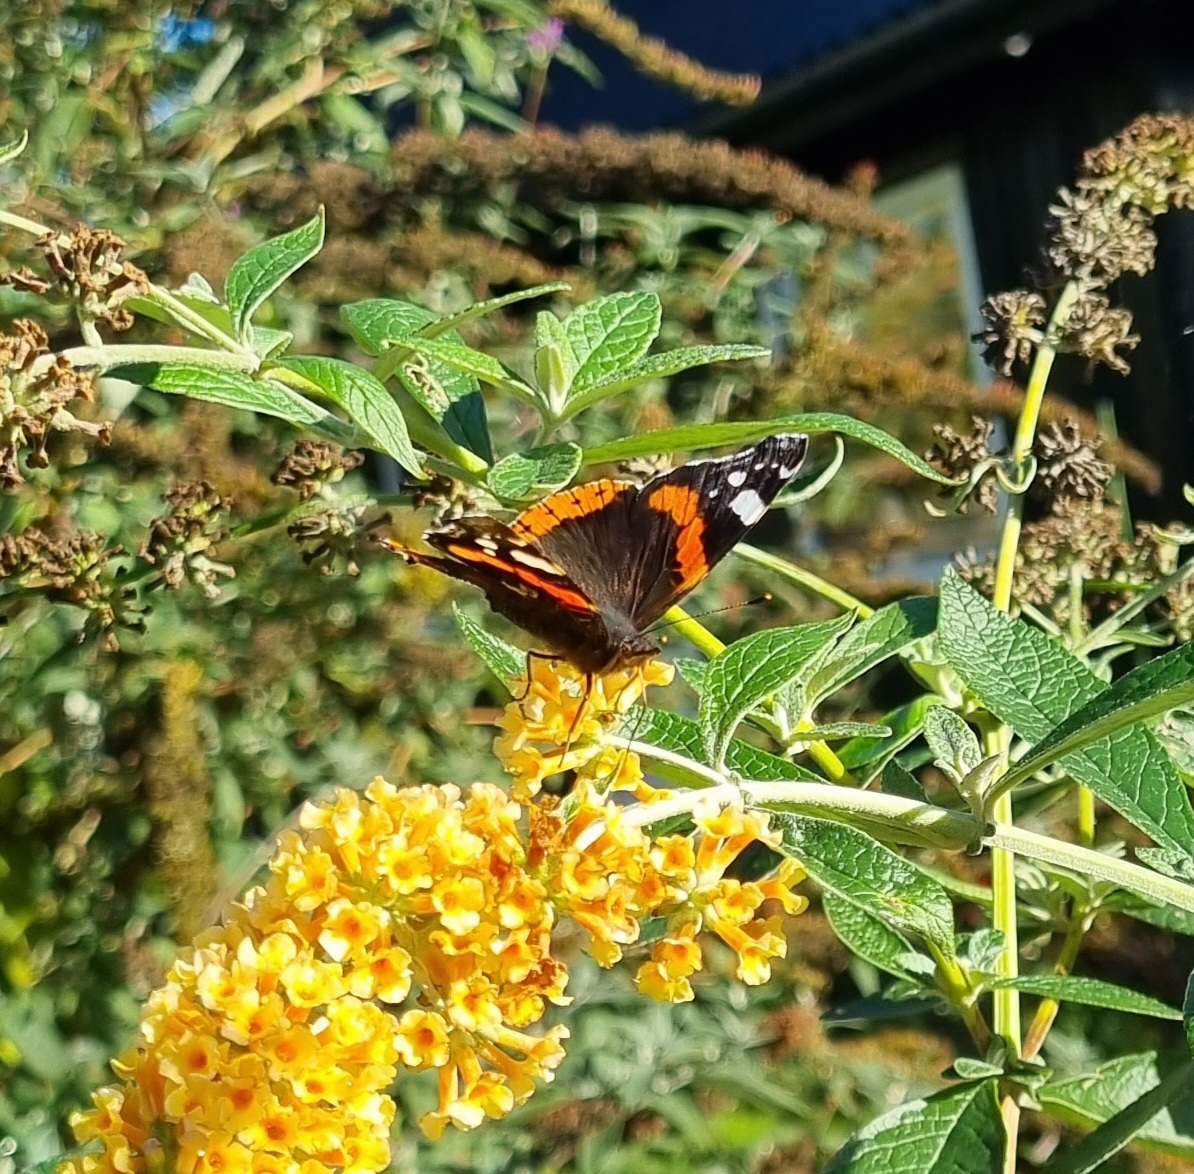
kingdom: Animalia
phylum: Arthropoda
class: Insecta
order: Lepidoptera
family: Nymphalidae
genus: Vanessa
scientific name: Vanessa atalanta
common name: Admiral
